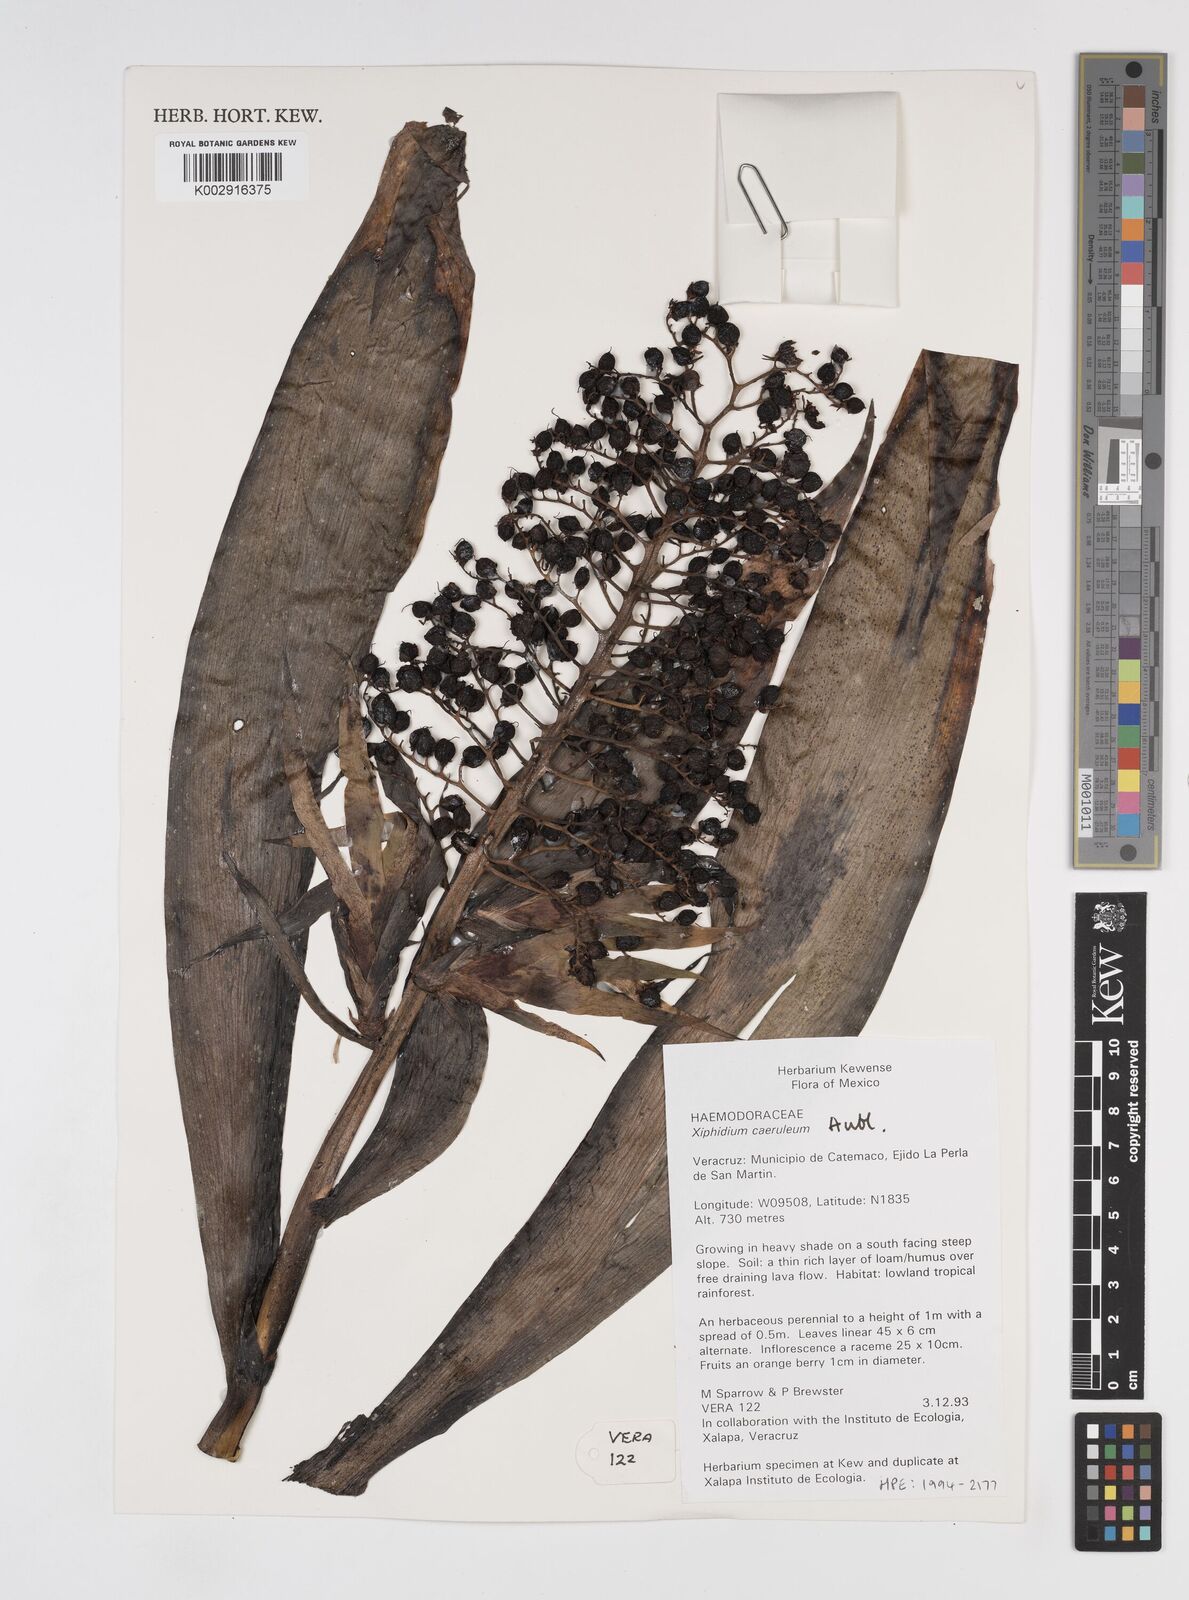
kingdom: Plantae
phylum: Tracheophyta
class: Liliopsida
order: Commelinales
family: Haemodoraceae
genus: Xiphidium
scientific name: Xiphidium caeruleum
